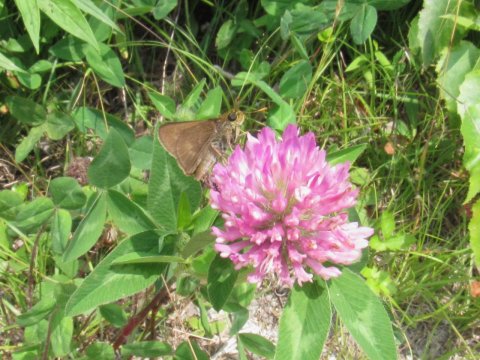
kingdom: Animalia
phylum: Arthropoda
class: Insecta
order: Lepidoptera
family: Hesperiidae
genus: Polites
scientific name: Polites egeremet
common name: Northern Broken-Dash
